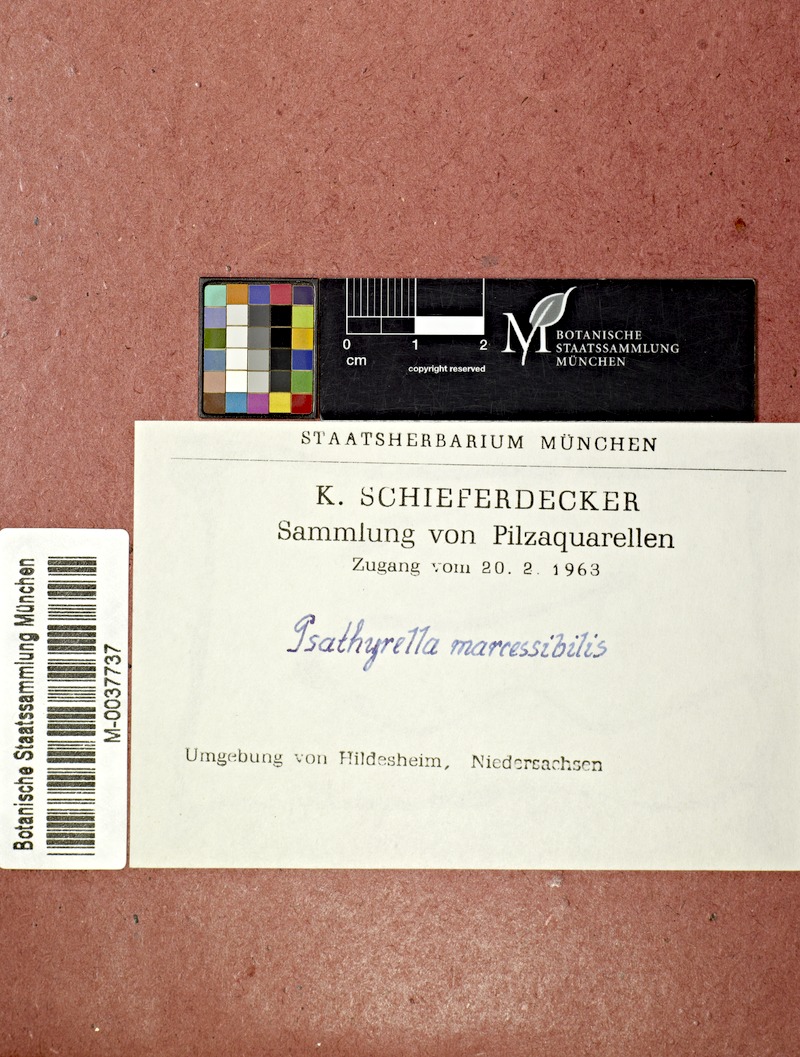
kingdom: Fungi
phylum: Basidiomycota
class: Agaricomycetes
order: Agaricales
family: Psathyrellaceae
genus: Coprinopsis
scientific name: Coprinopsis marcescibilis
